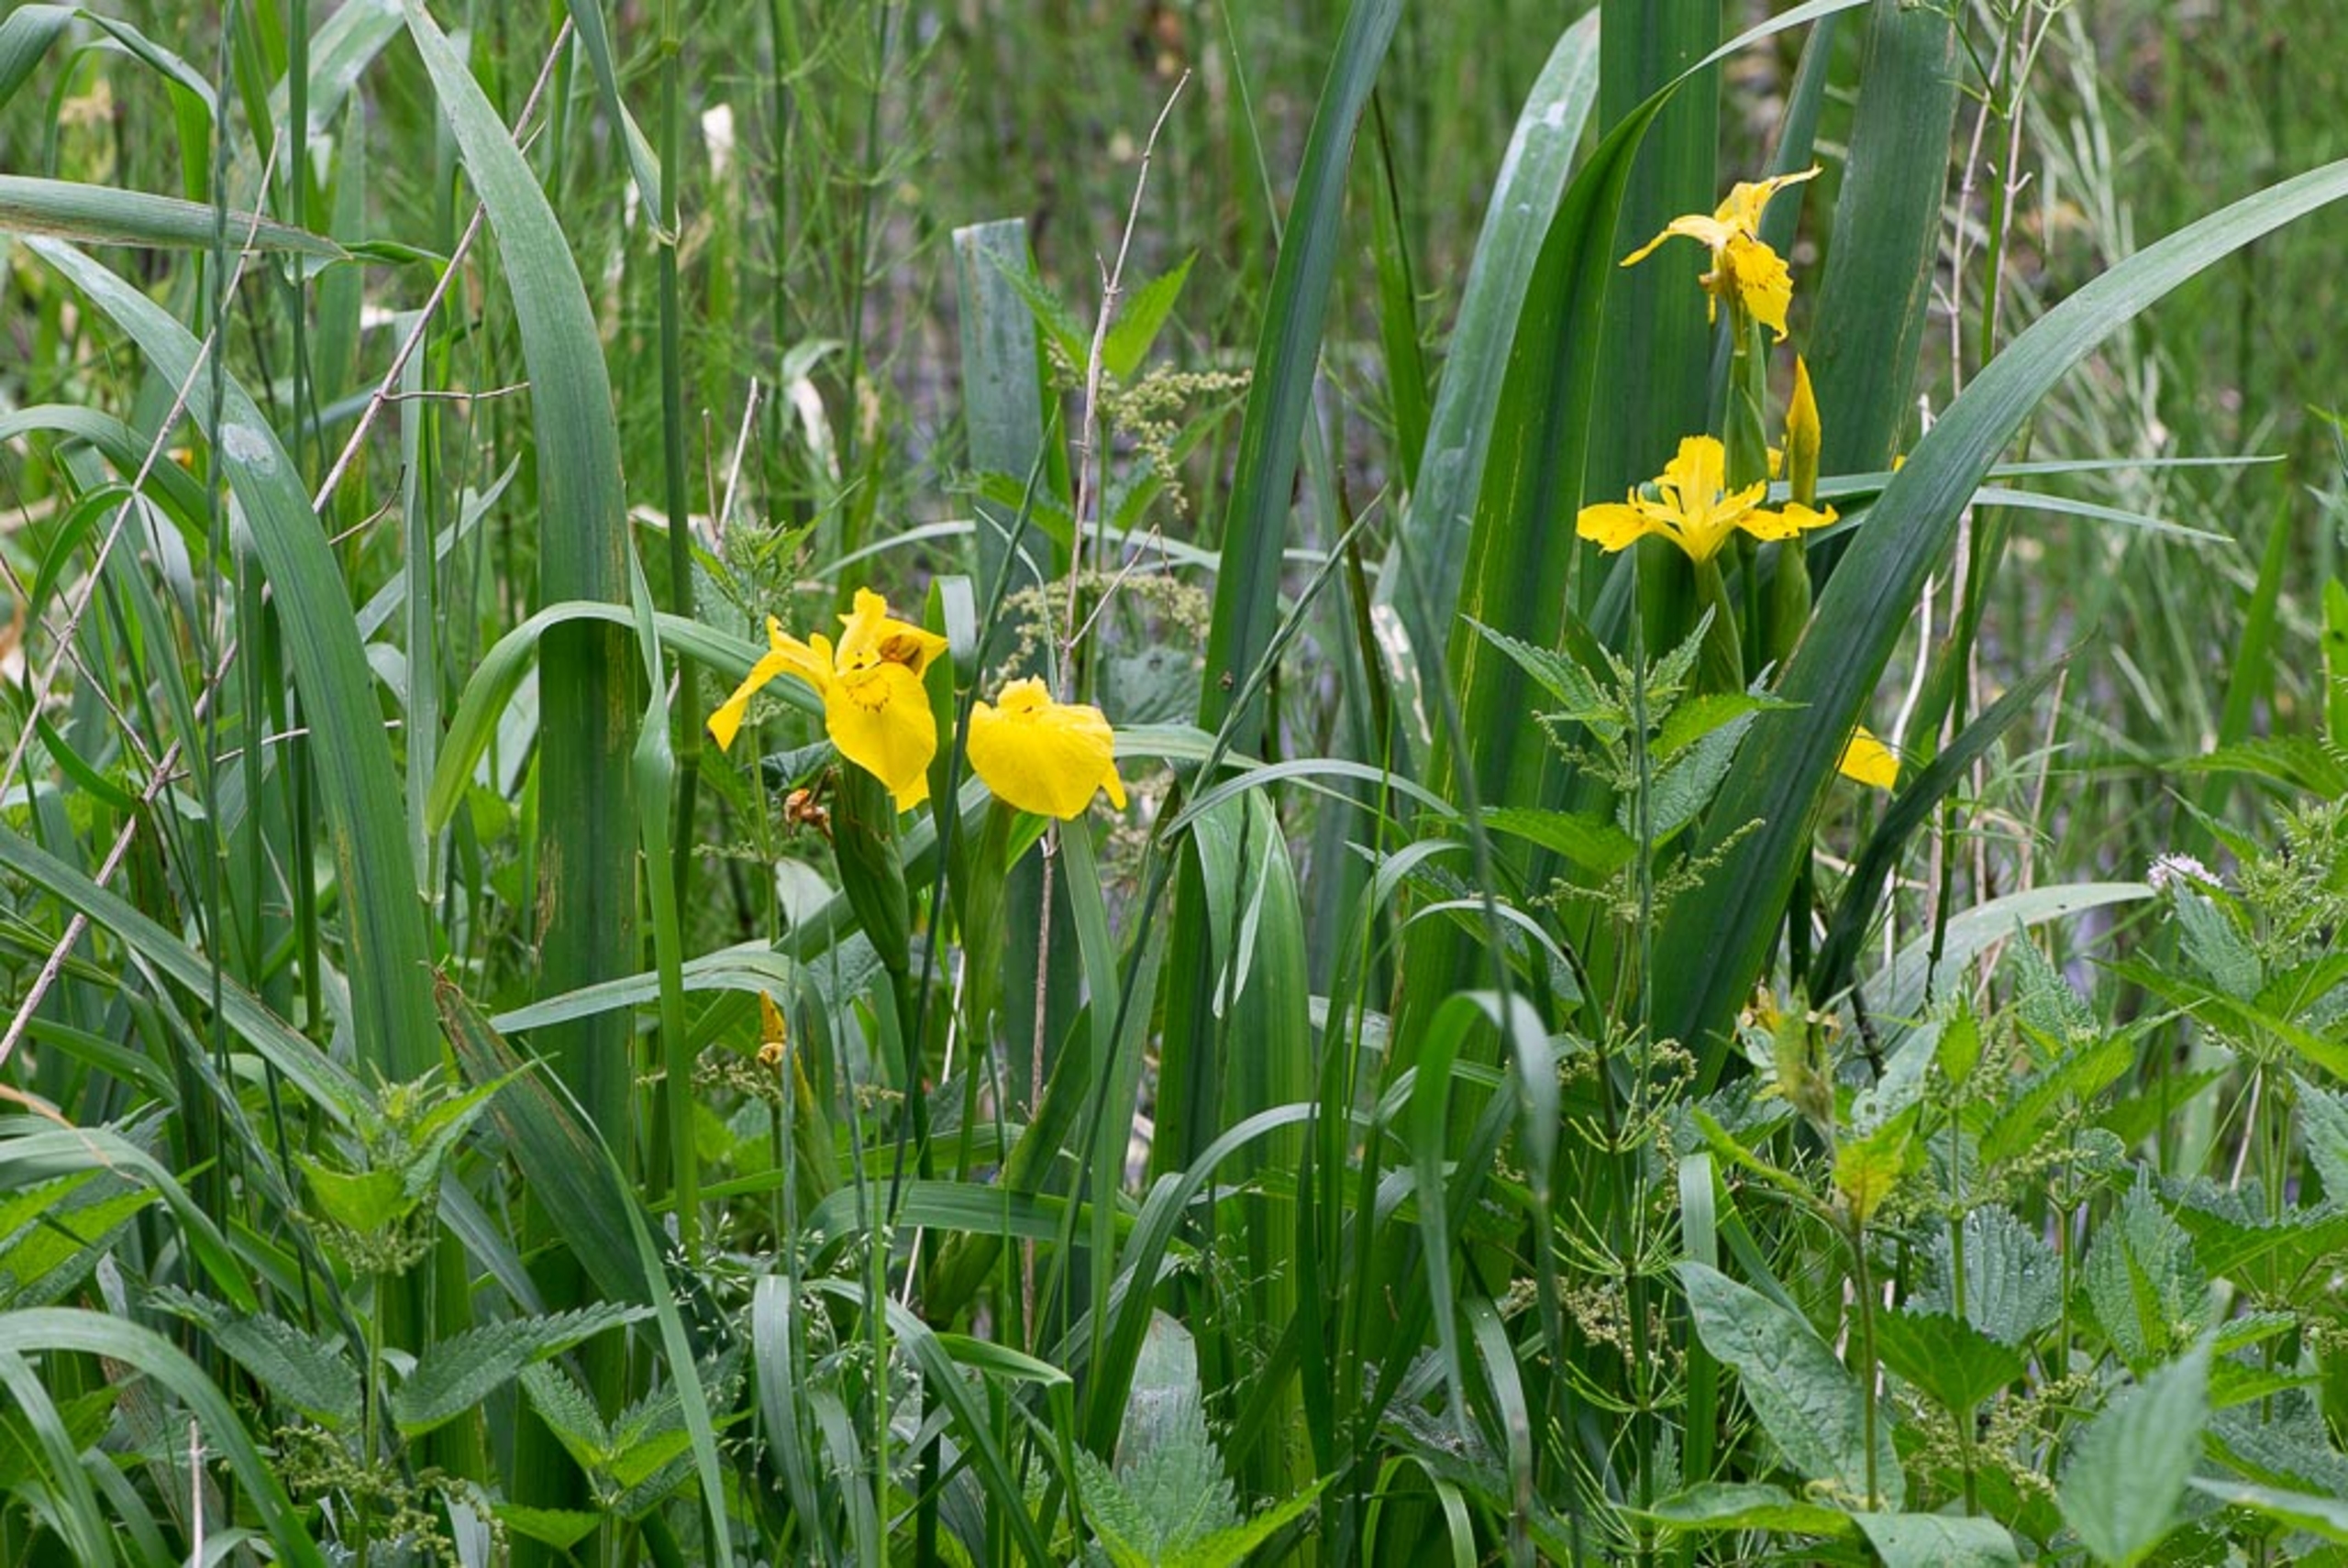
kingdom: Plantae
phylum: Tracheophyta
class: Liliopsida
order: Asparagales
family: Iridaceae
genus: Iris
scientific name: Iris pseudacorus
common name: Gul iris
